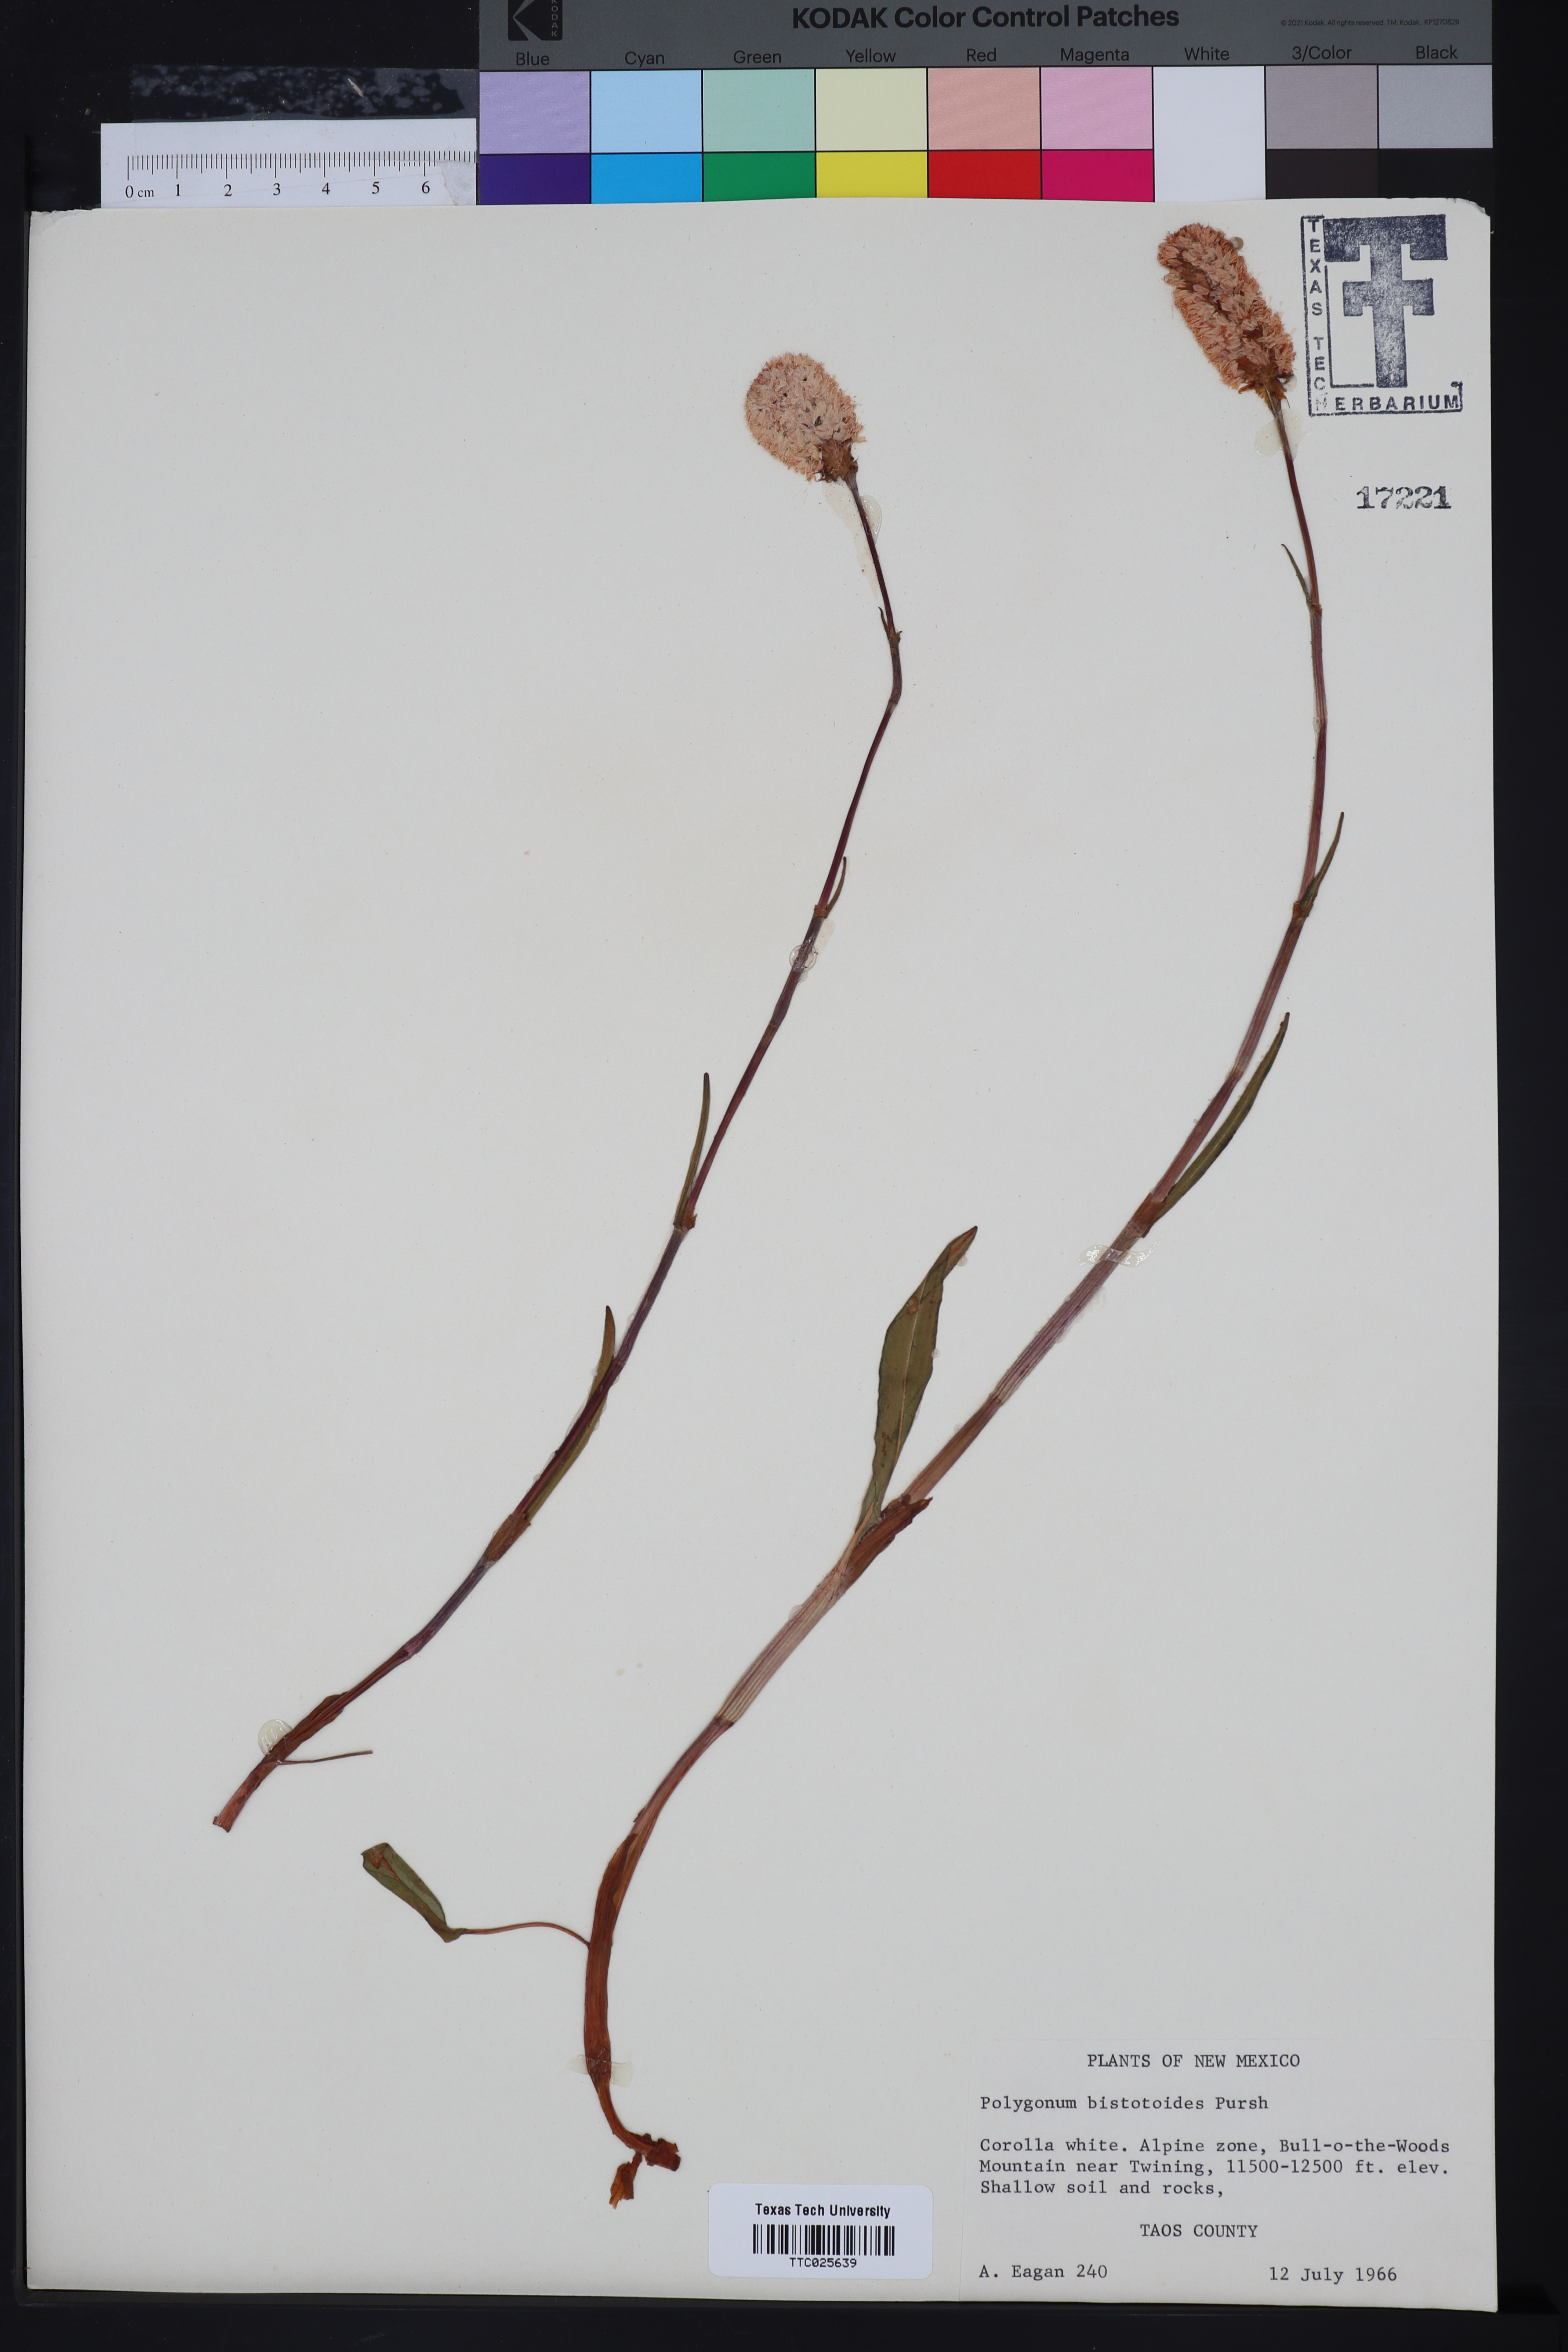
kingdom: Plantae
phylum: Tracheophyta
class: Magnoliopsida
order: Caryophyllales
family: Polygonaceae
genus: Bistorta
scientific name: Bistorta bistortoides
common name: American bistort
